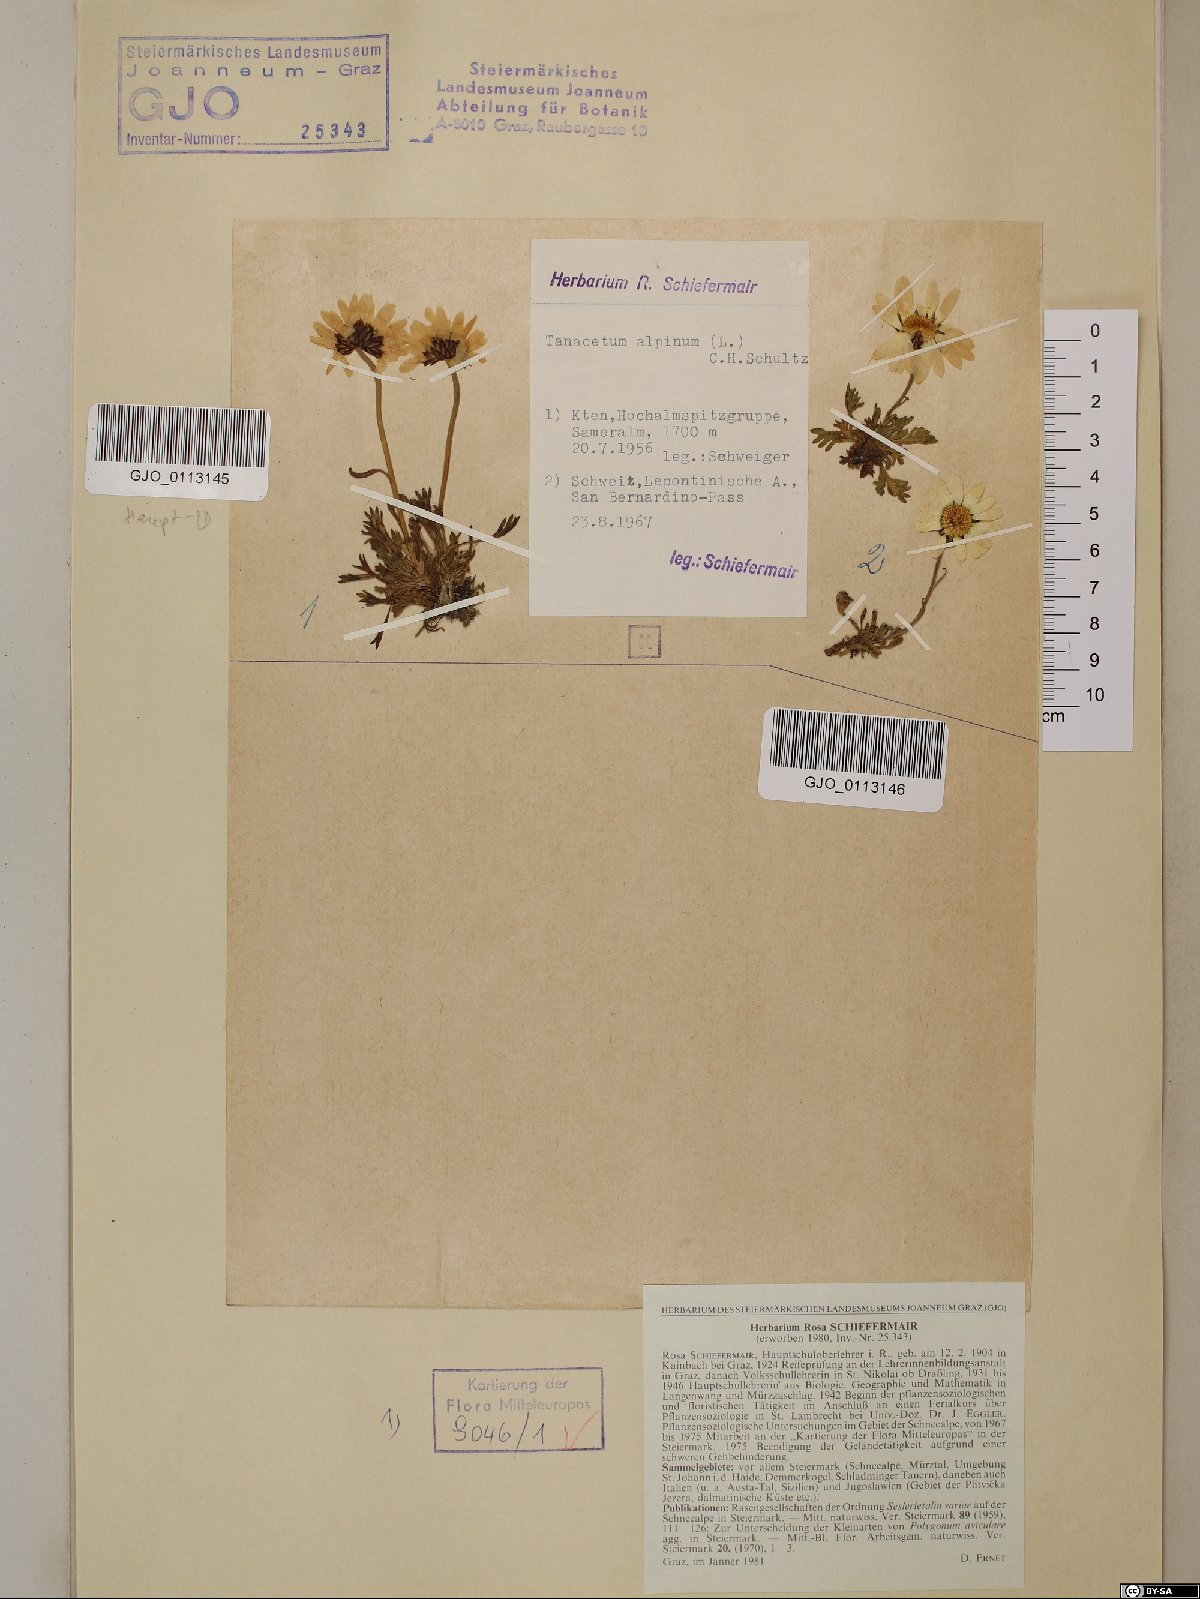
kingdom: Plantae
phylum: Tracheophyta
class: Magnoliopsida
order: Asterales
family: Asteraceae
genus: Leucanthemopsis
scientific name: Leucanthemopsis alpina
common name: Alpine moon daisy
